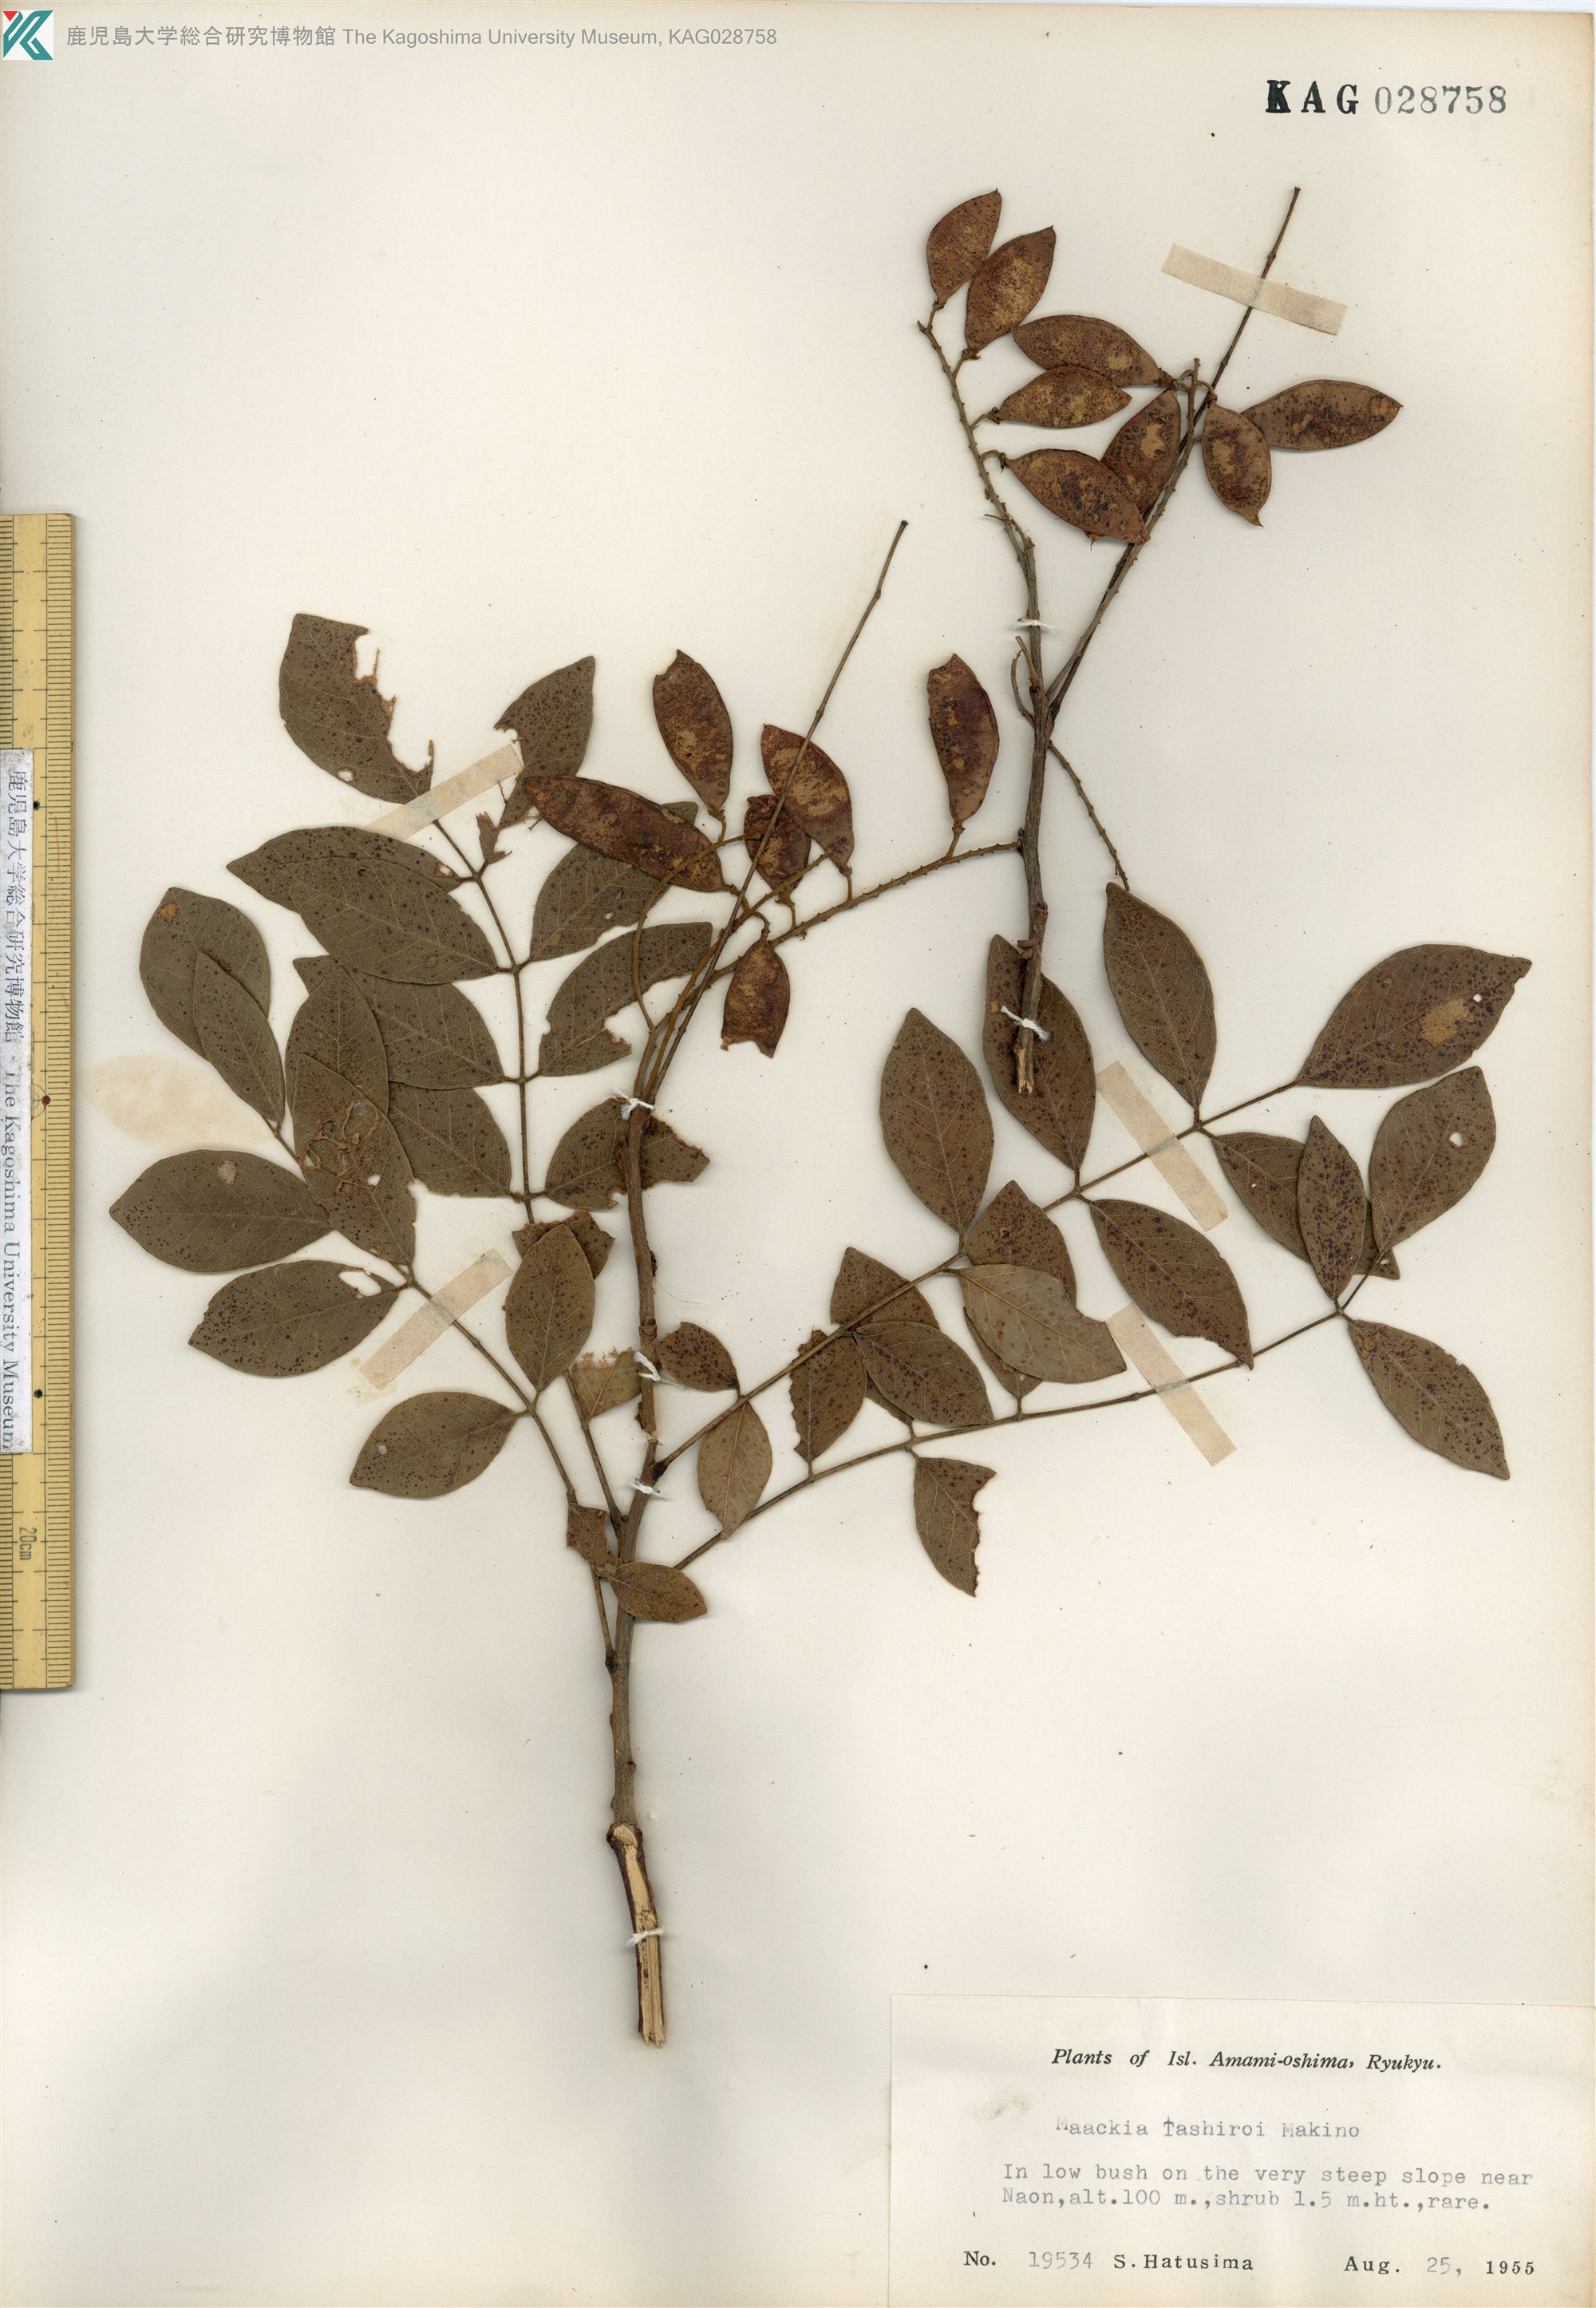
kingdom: Plantae
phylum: Tracheophyta
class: Magnoliopsida
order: Fabales
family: Fabaceae
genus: Maackia
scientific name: Maackia tashiroi
